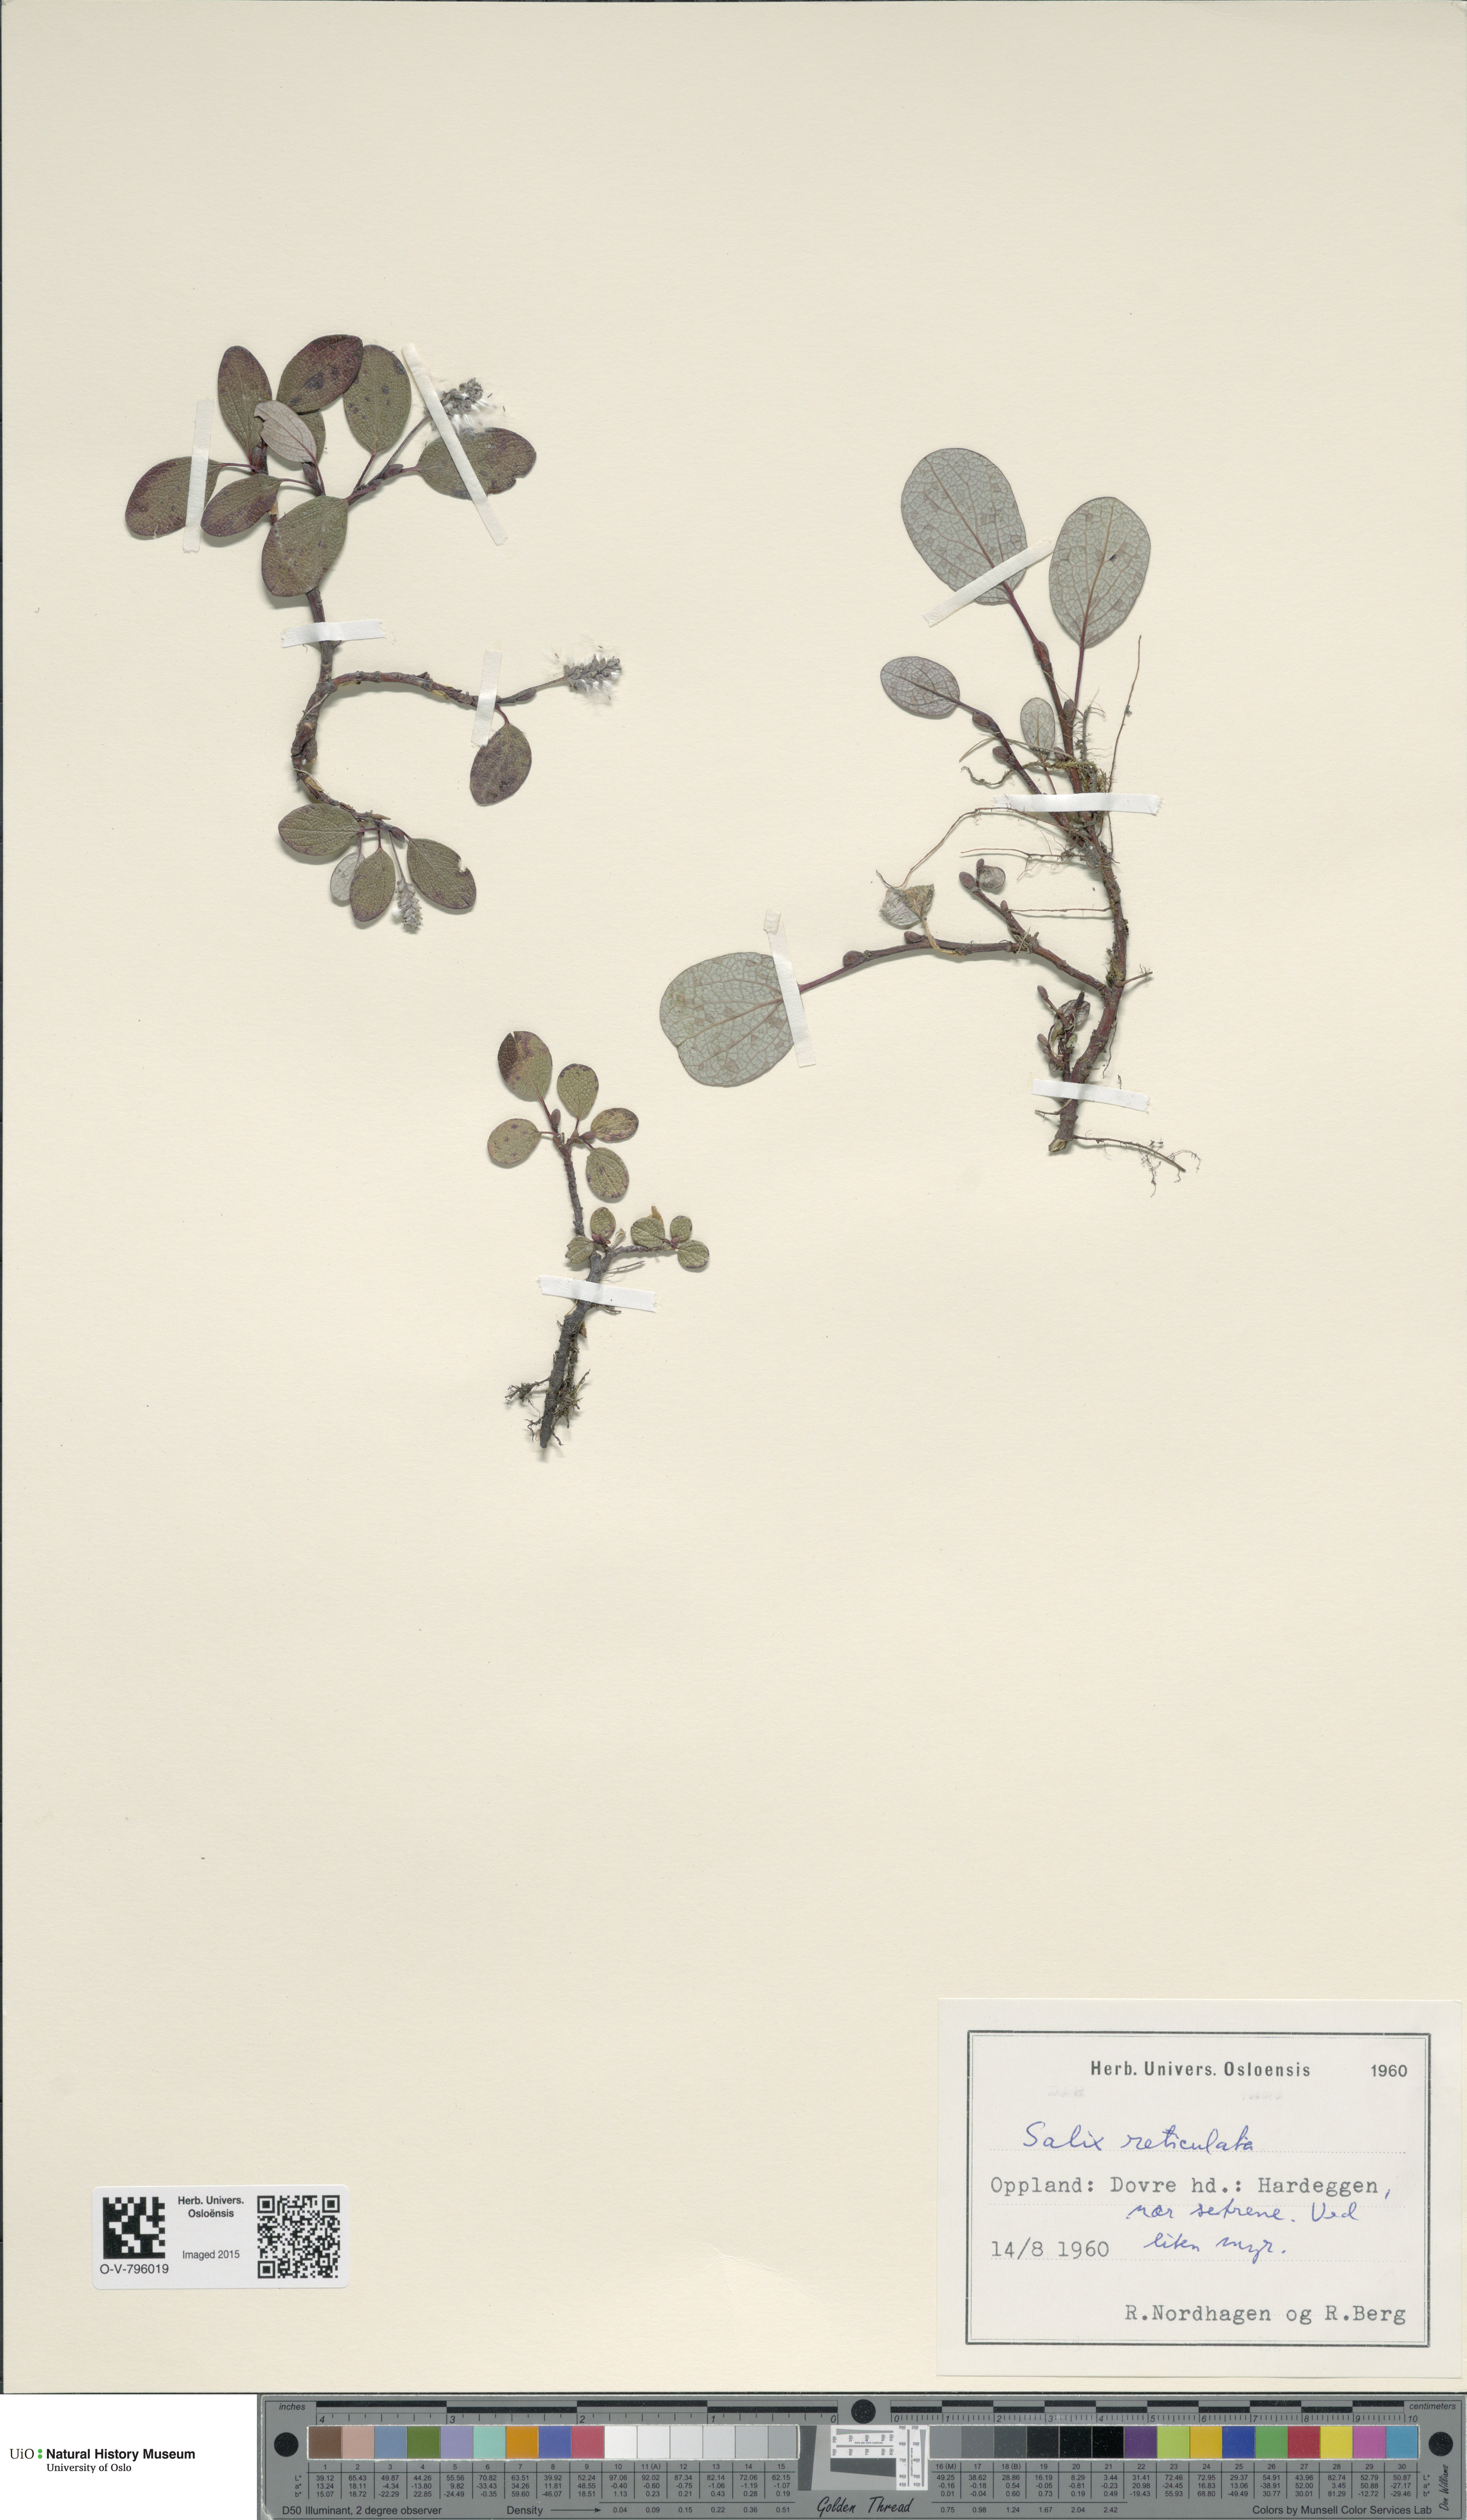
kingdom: Plantae
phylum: Tracheophyta
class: Magnoliopsida
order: Malpighiales
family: Salicaceae
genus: Salix
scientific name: Salix reticulata
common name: Net-leaved willow
